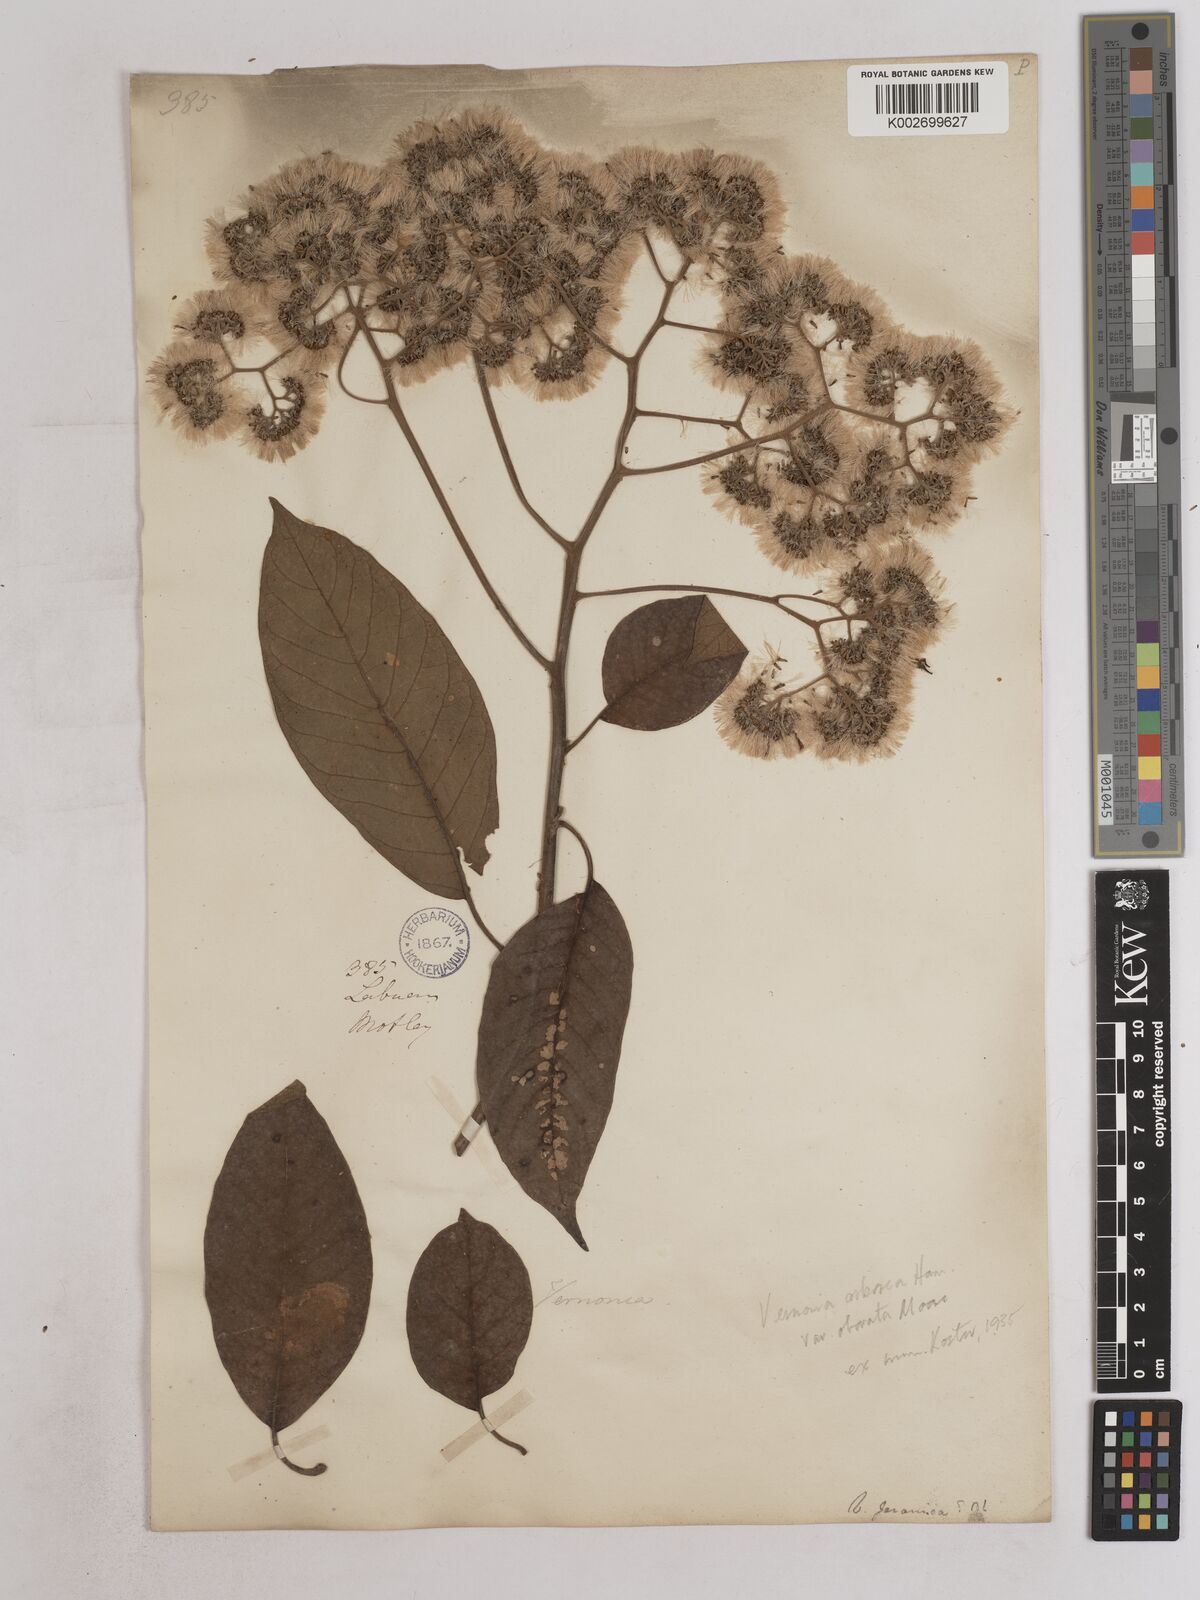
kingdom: Plantae
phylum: Tracheophyta
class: Magnoliopsida
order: Asterales
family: Asteraceae
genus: Strobocalyx
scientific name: Strobocalyx arborea
